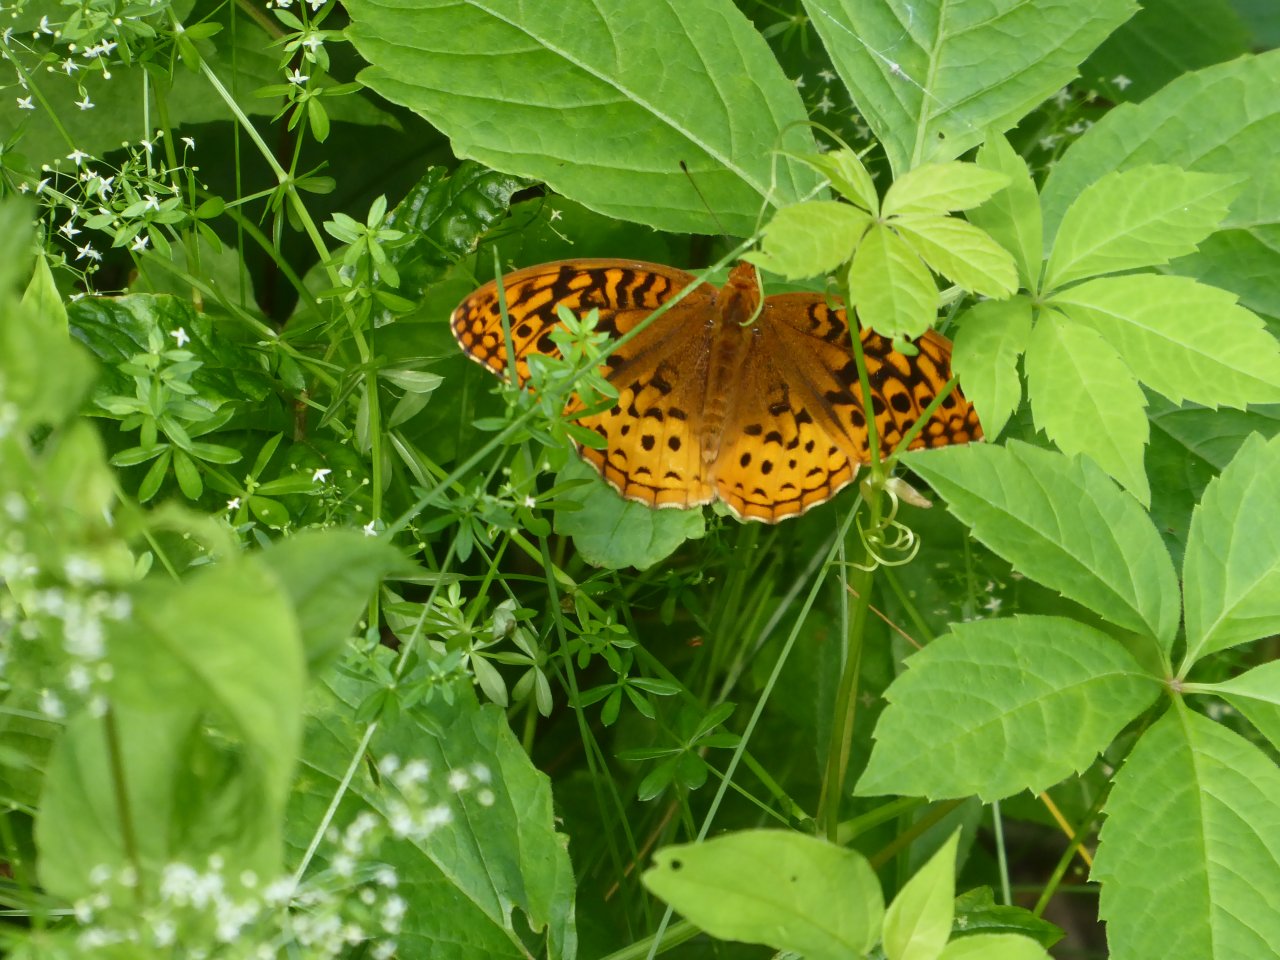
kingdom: Animalia
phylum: Arthropoda
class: Insecta
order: Lepidoptera
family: Nymphalidae
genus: Speyeria
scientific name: Speyeria cybele
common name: Great Spangled Fritillary
